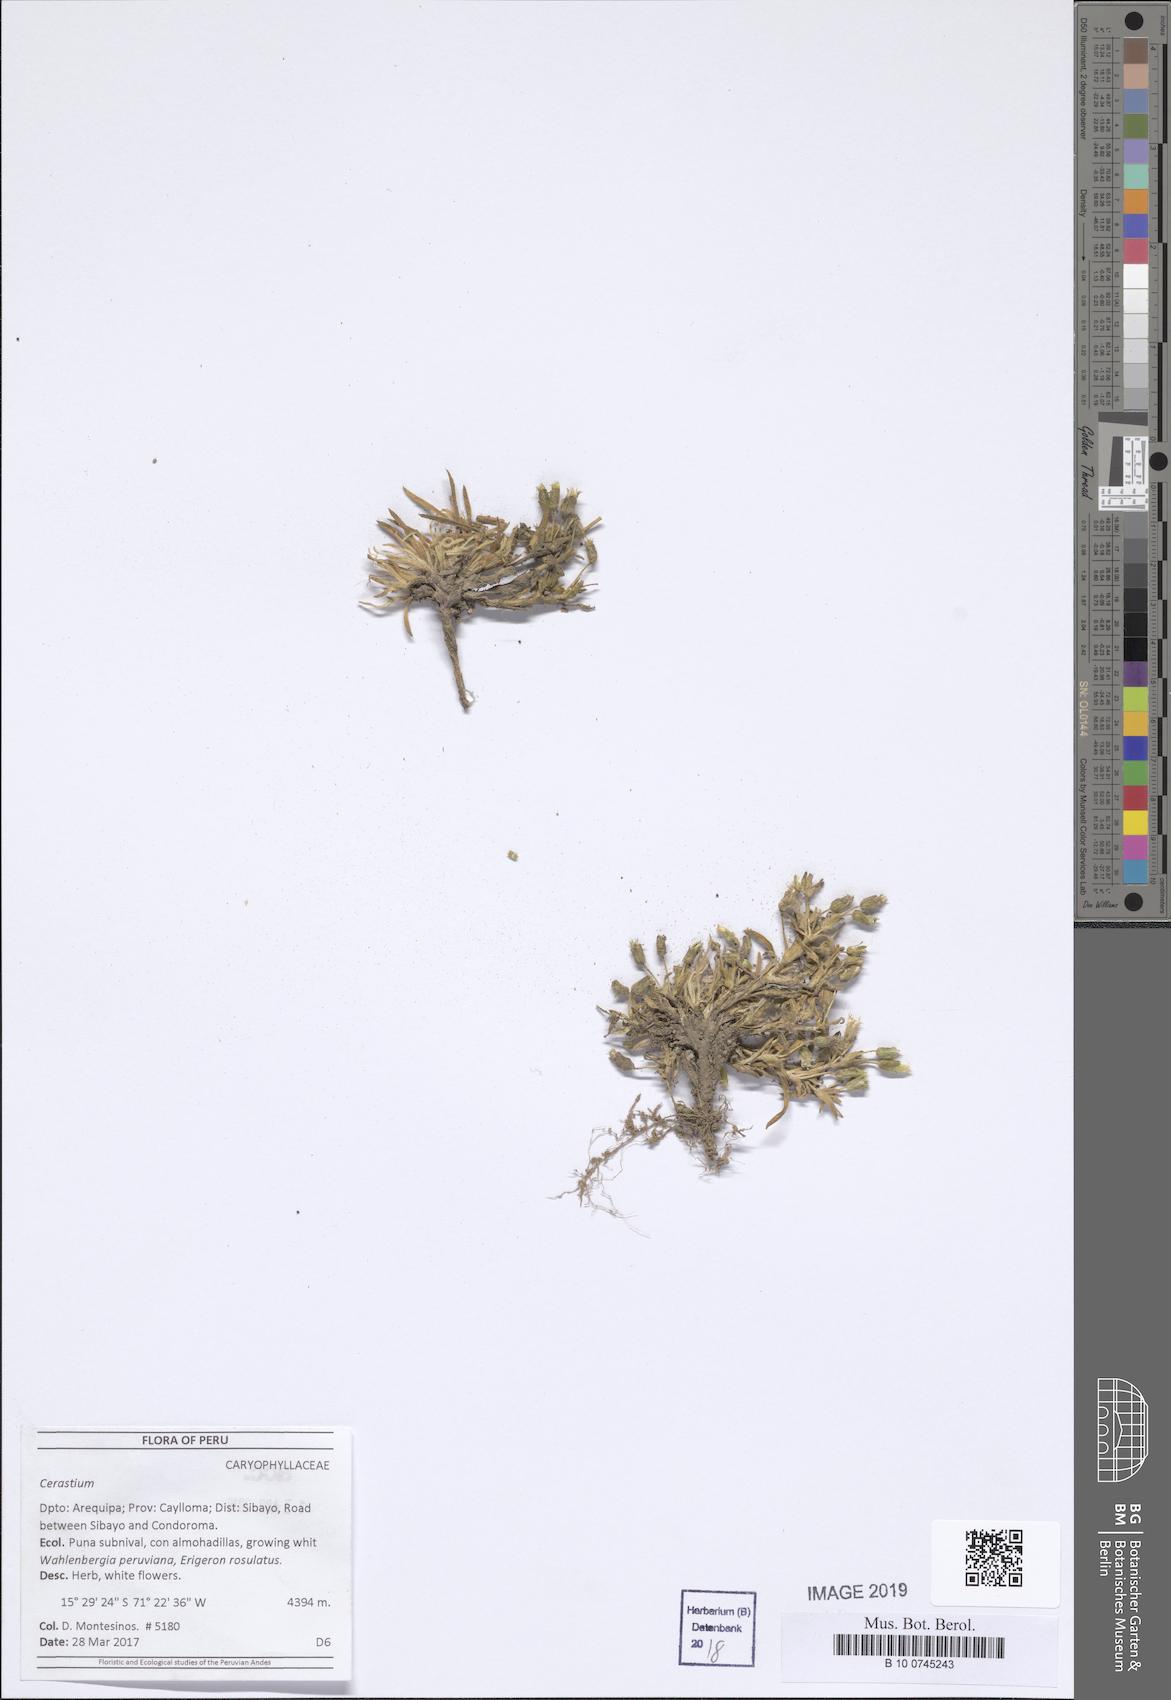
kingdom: Plantae
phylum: Tracheophyta
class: Magnoliopsida
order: Caryophyllales
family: Caryophyllaceae
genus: Cerastium
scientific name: Cerastium
